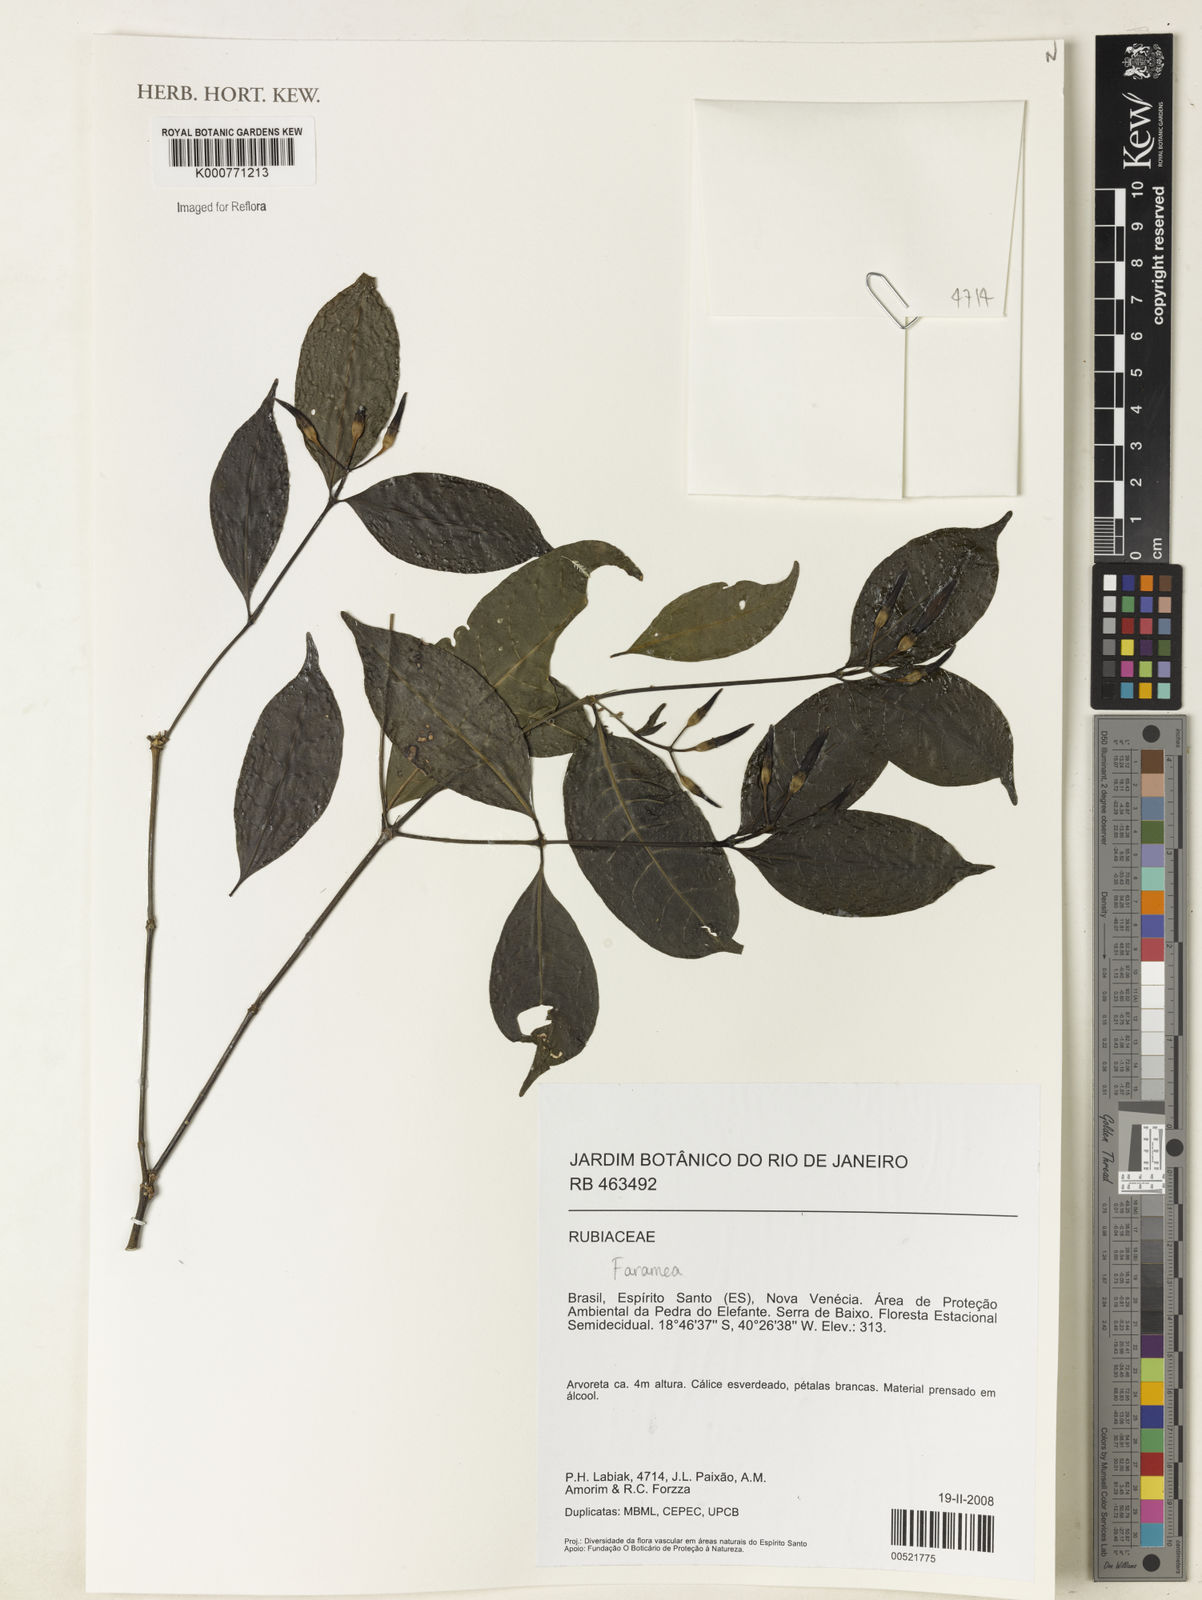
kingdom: Plantae
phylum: Tracheophyta
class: Magnoliopsida
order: Gentianales
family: Rubiaceae
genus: Coussarea
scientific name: Coussarea
